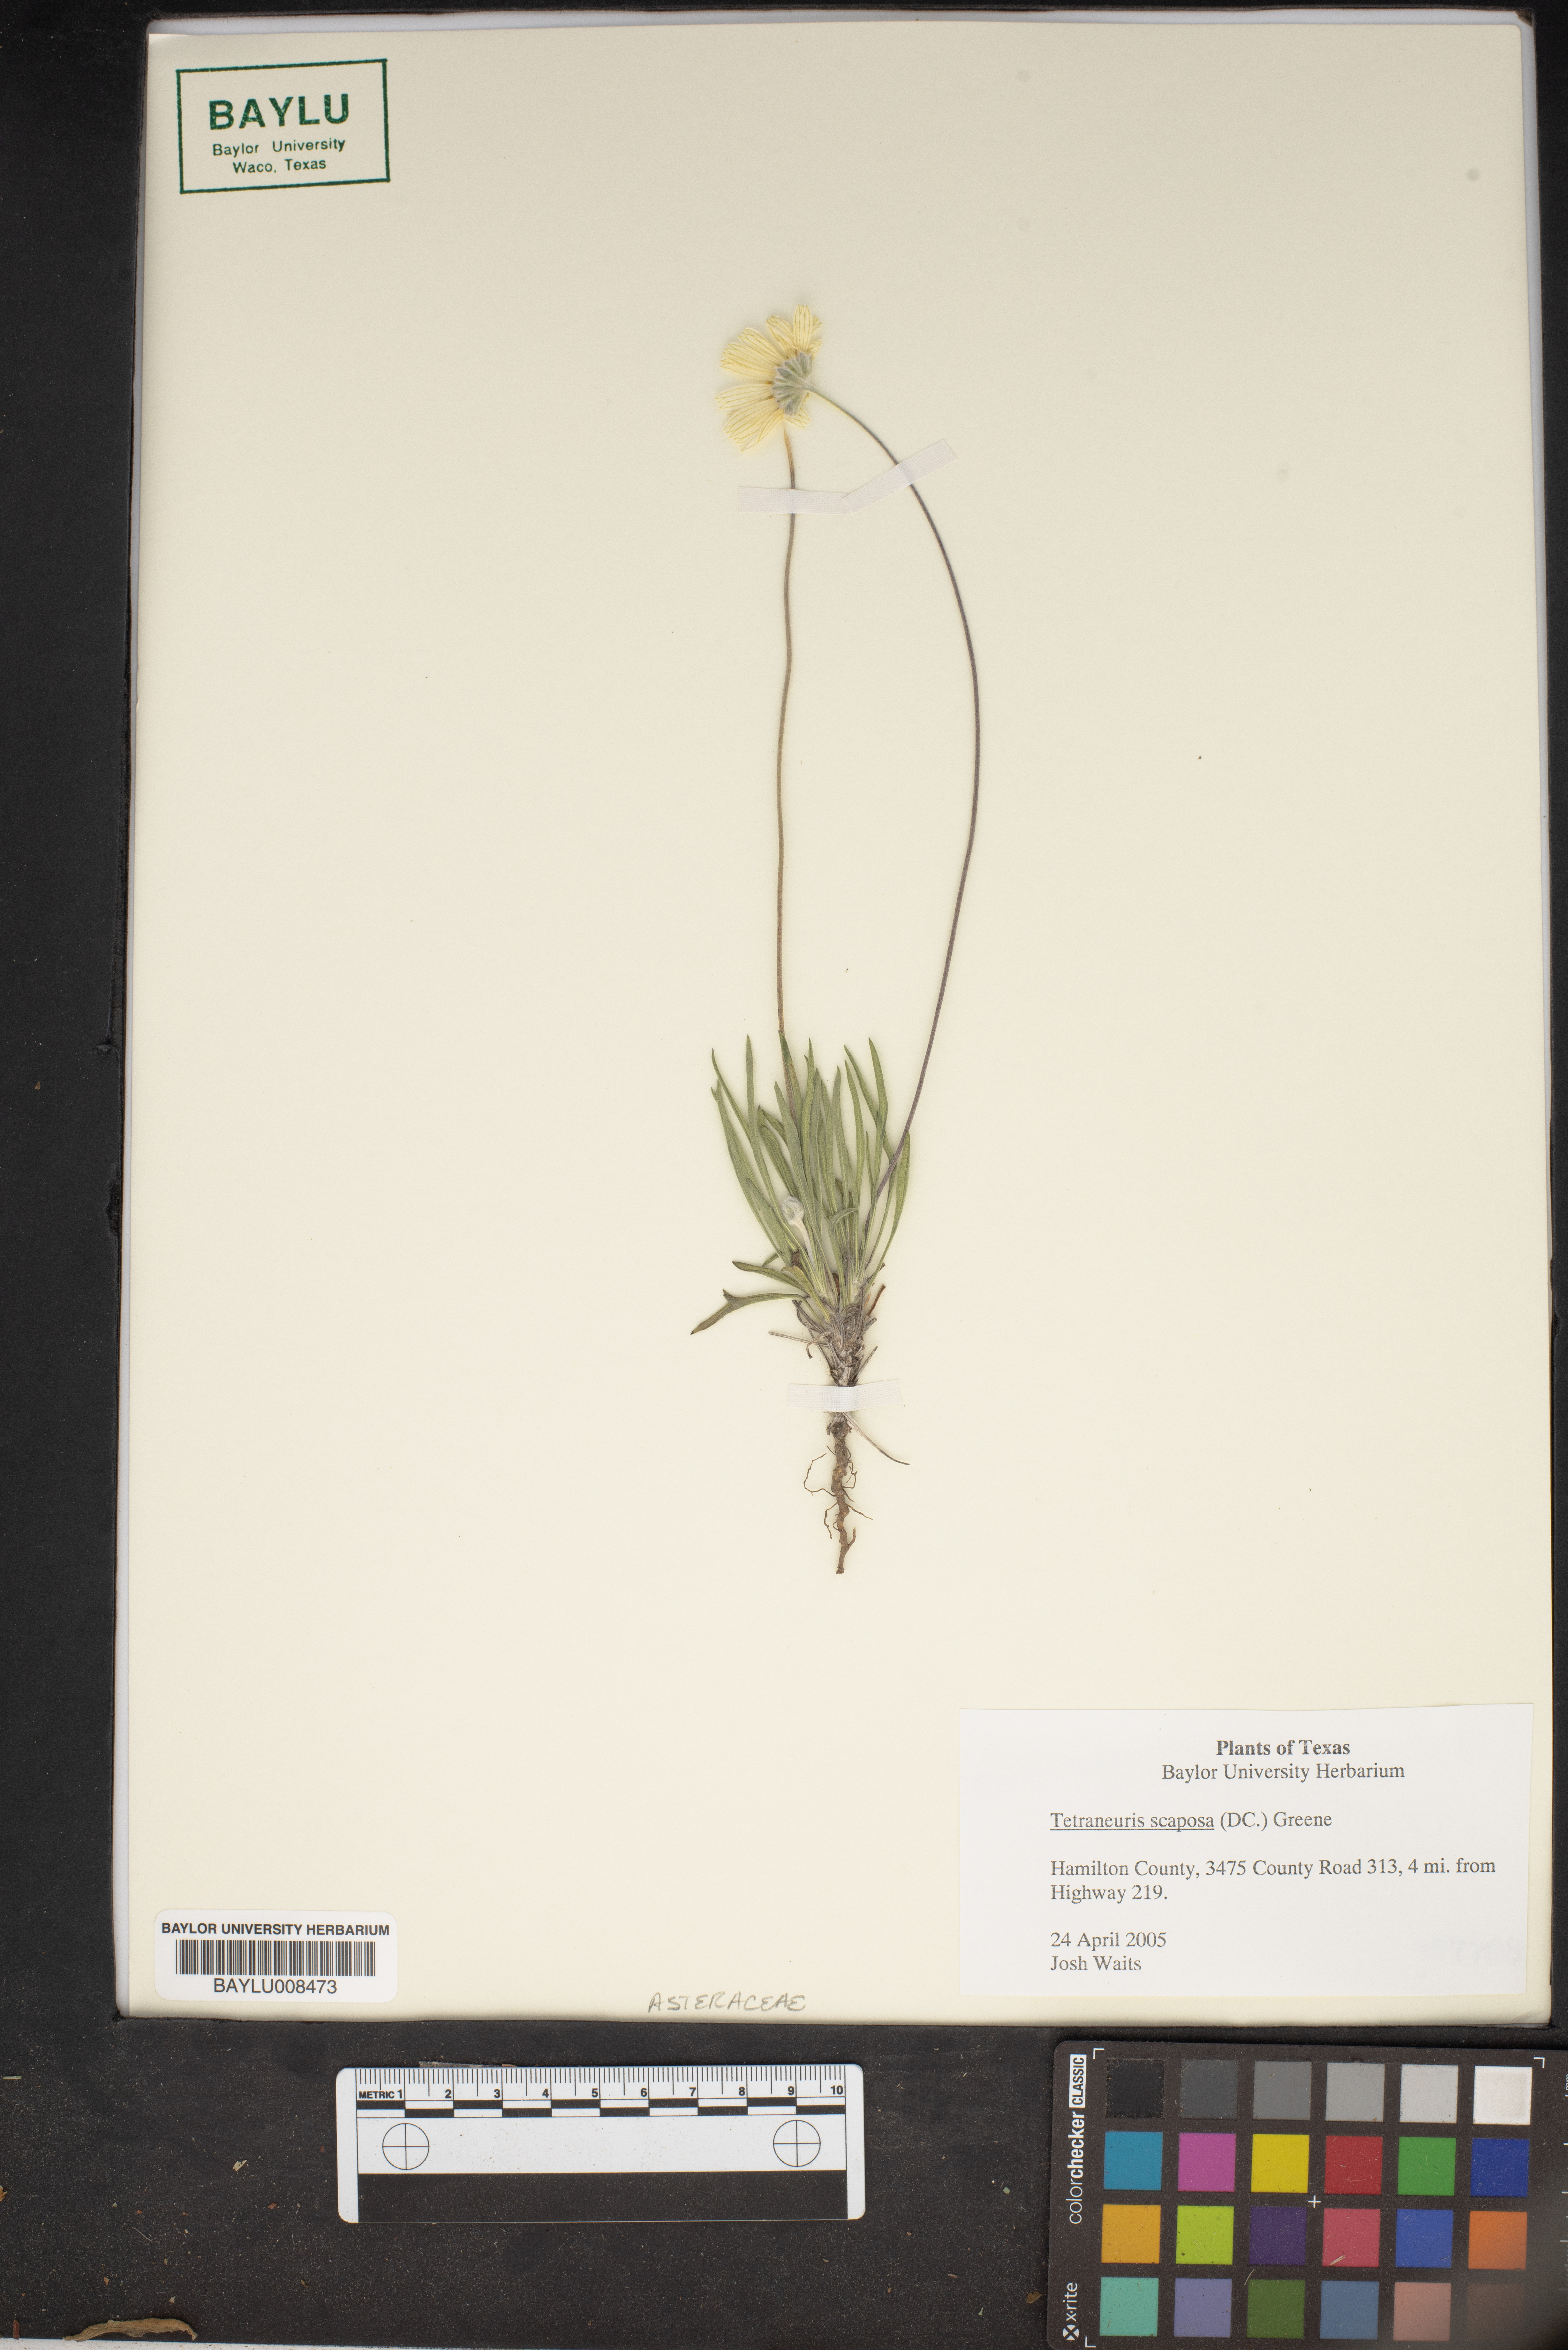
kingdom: Plantae
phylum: Tracheophyta
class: Magnoliopsida
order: Asterales
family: Asteraceae
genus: Tetraneuris
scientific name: Tetraneuris scaposa
